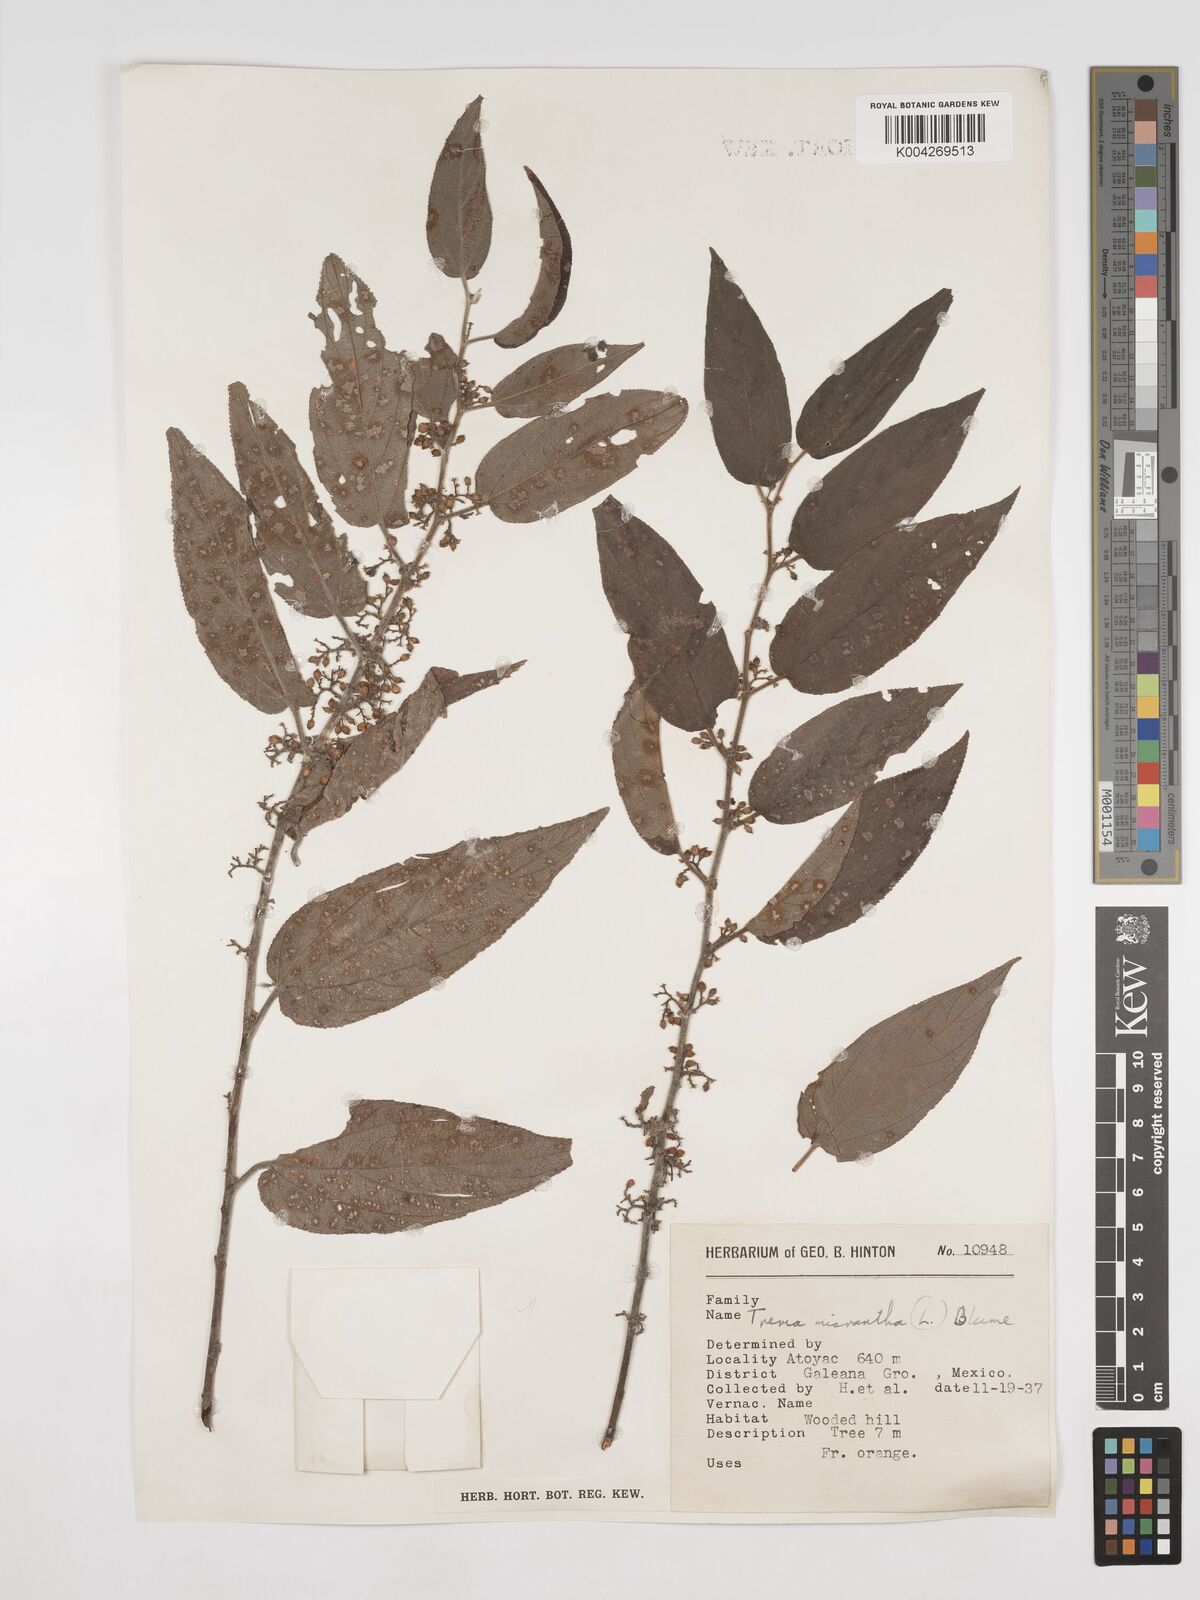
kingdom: Plantae
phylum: Tracheophyta
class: Magnoliopsida
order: Rosales
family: Cannabaceae
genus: Trema
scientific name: Trema micranthum
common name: Jamaican nettletree
